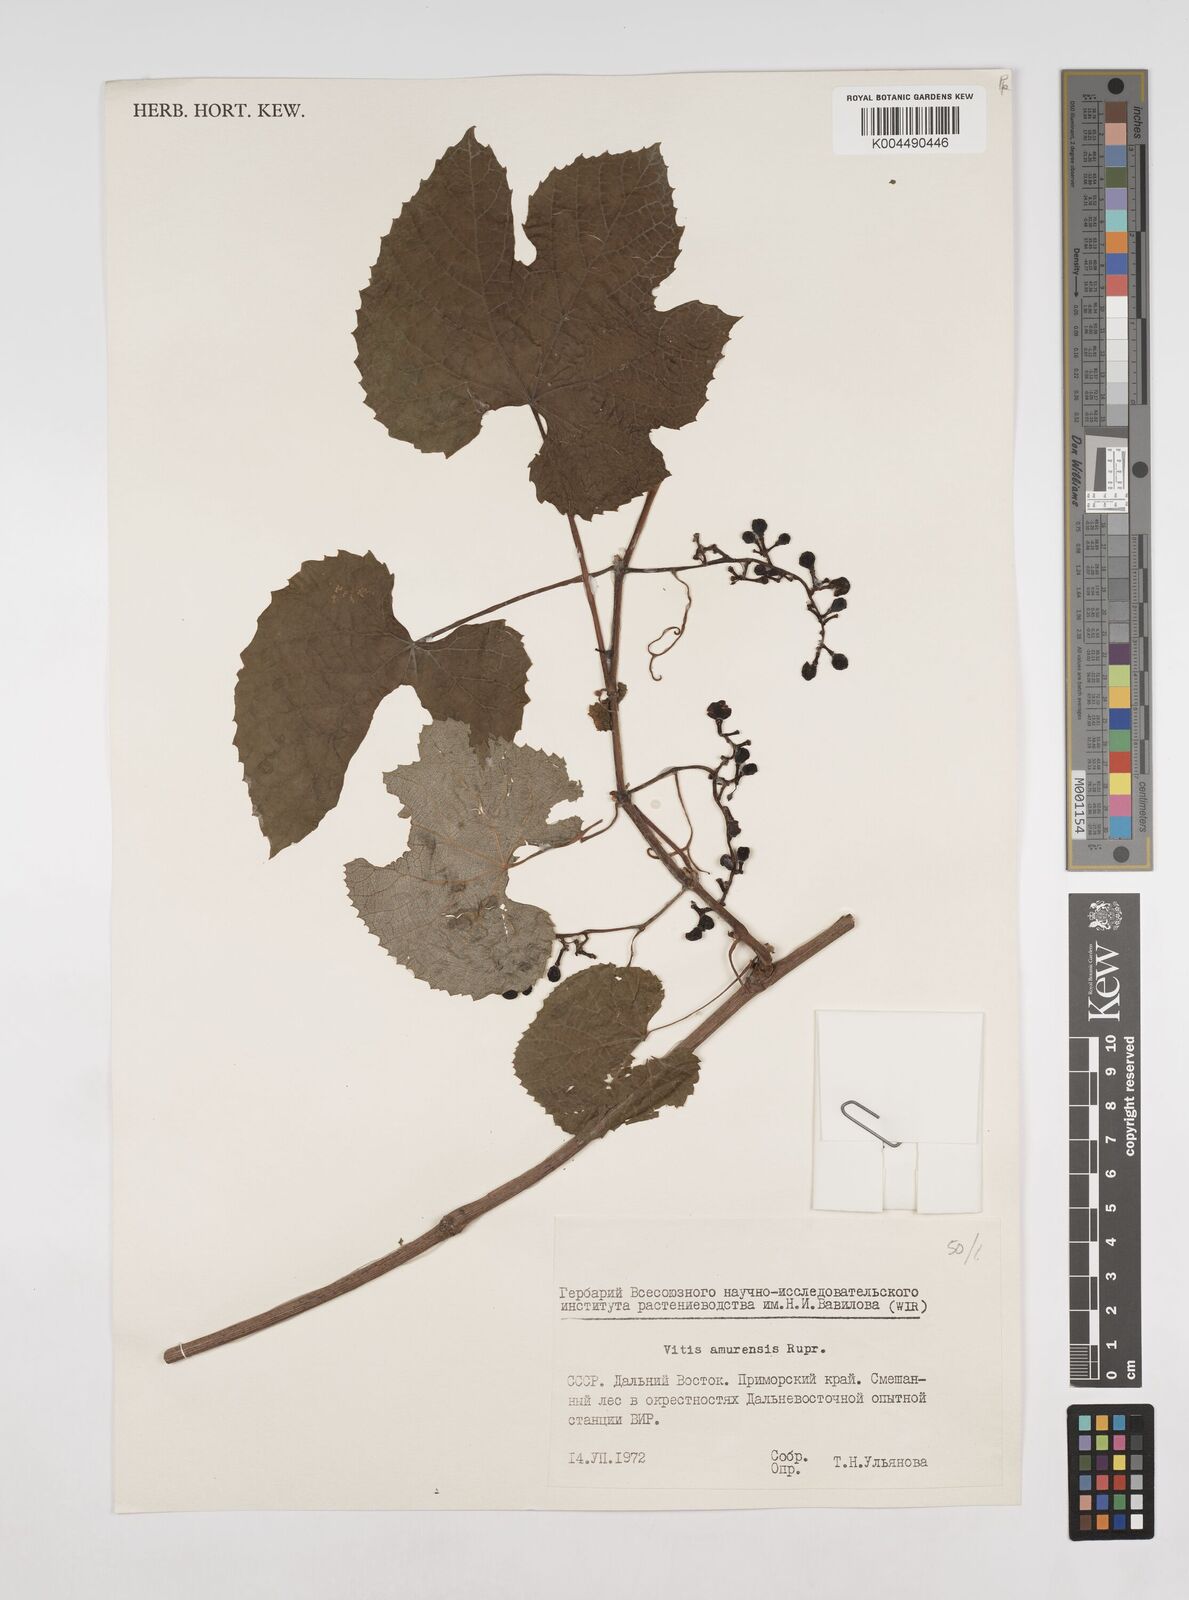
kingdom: Plantae
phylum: Tracheophyta
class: Magnoliopsida
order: Vitales
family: Vitaceae
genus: Vitis
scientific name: Vitis vinifera
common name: Grape-vine
